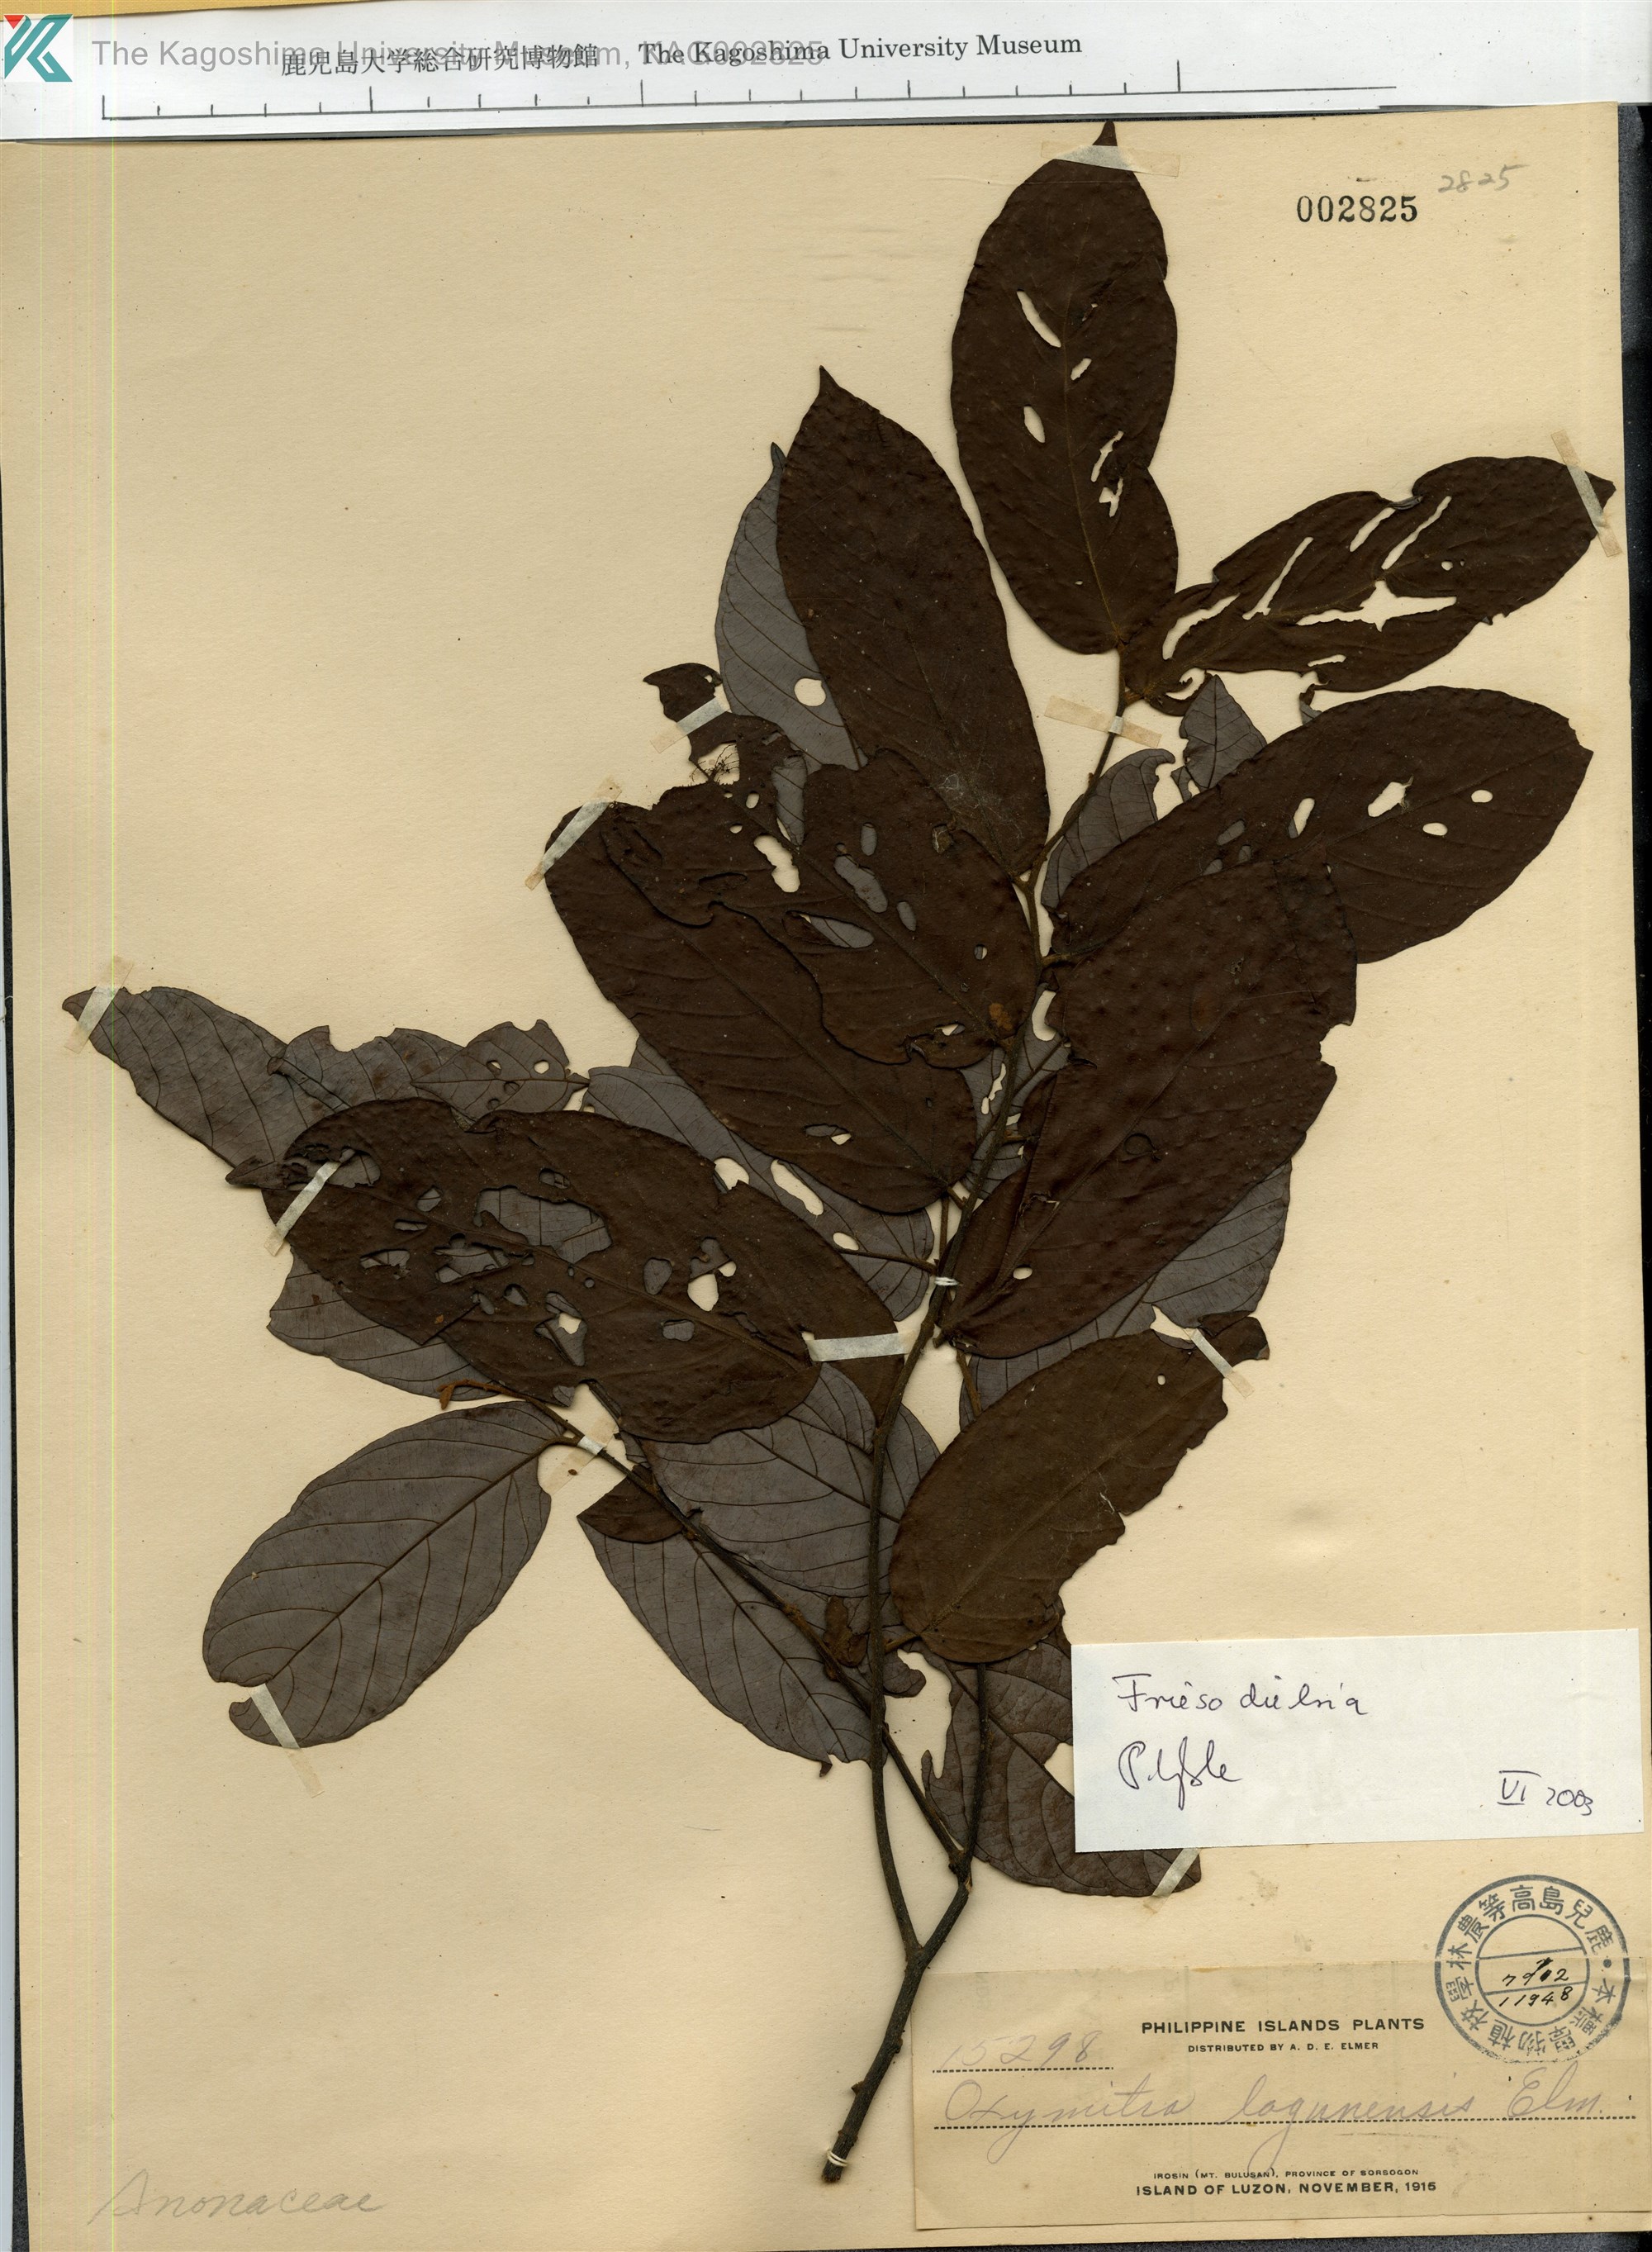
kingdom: Plantae
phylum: Tracheophyta
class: Magnoliopsida
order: Magnoliales
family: Annonaceae
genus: Friesodielsia
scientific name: Friesodielsia
